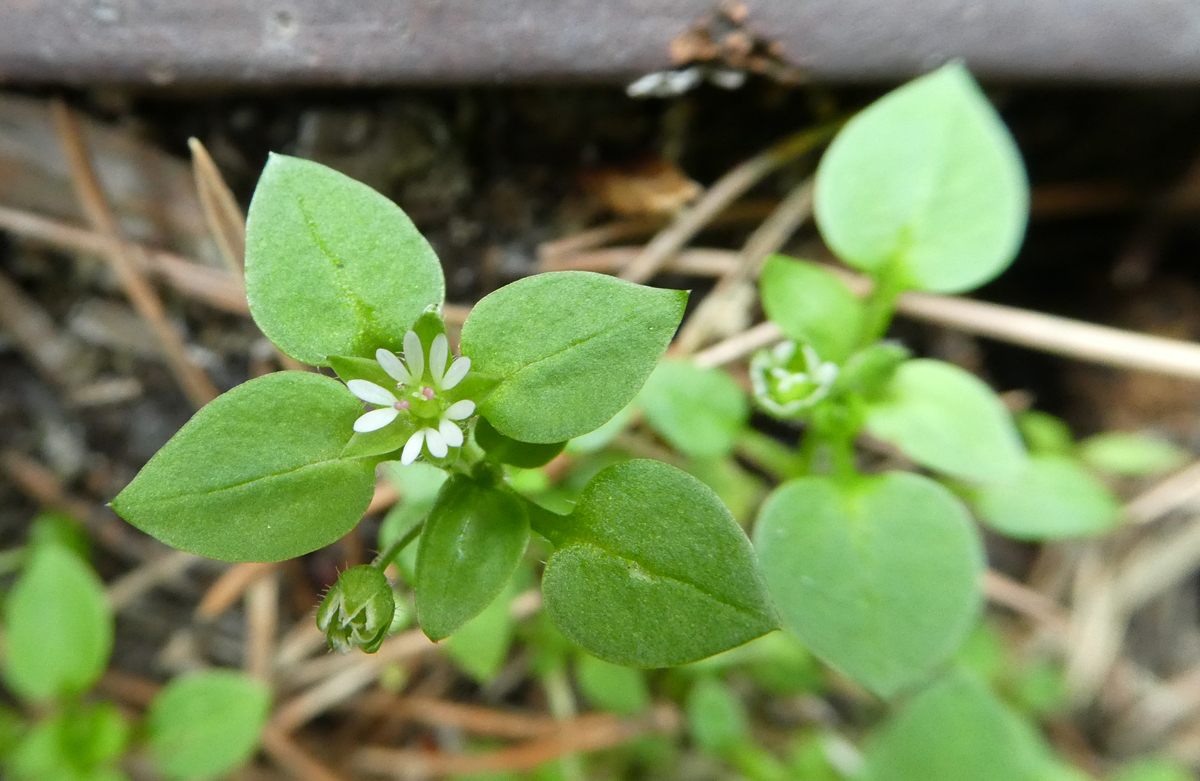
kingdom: Plantae
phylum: Tracheophyta
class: Magnoliopsida
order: Caryophyllales
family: Caryophyllaceae
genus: Stellaria
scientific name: Stellaria media
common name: Common chickweed
